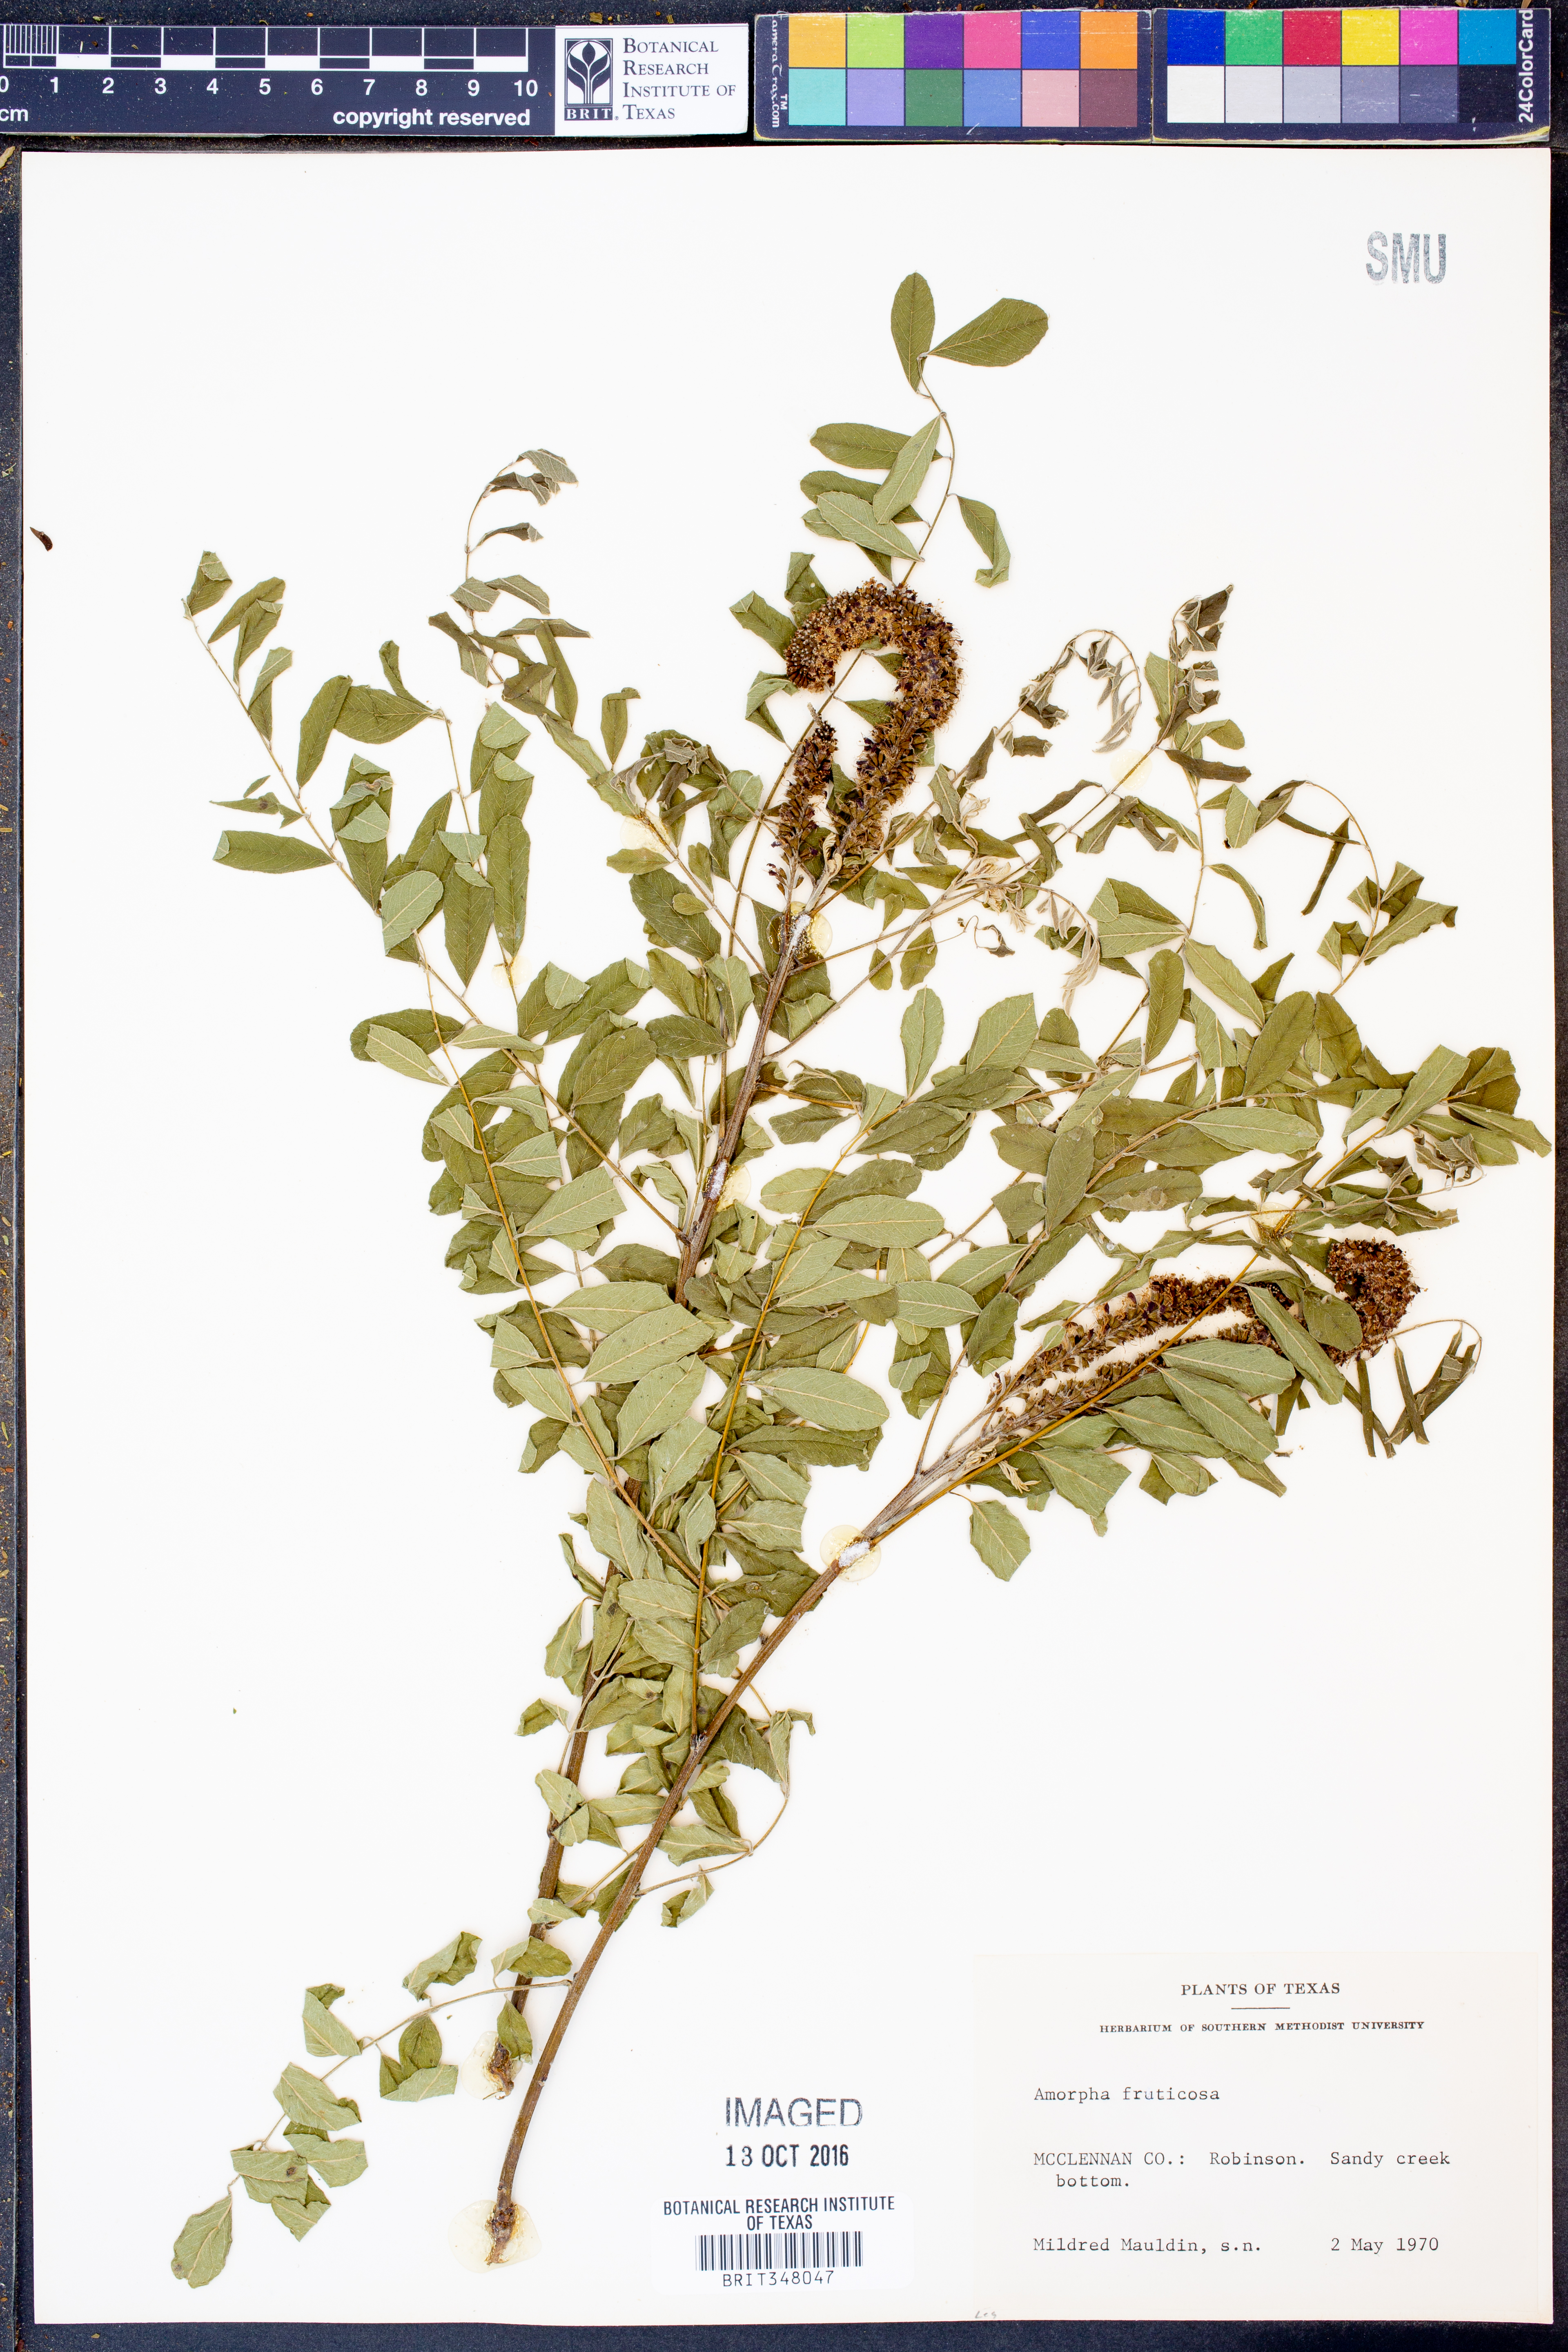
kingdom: Plantae
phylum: Tracheophyta
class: Magnoliopsida
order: Fabales
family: Fabaceae
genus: Amorpha
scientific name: Amorpha fruticosa
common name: False indigo
